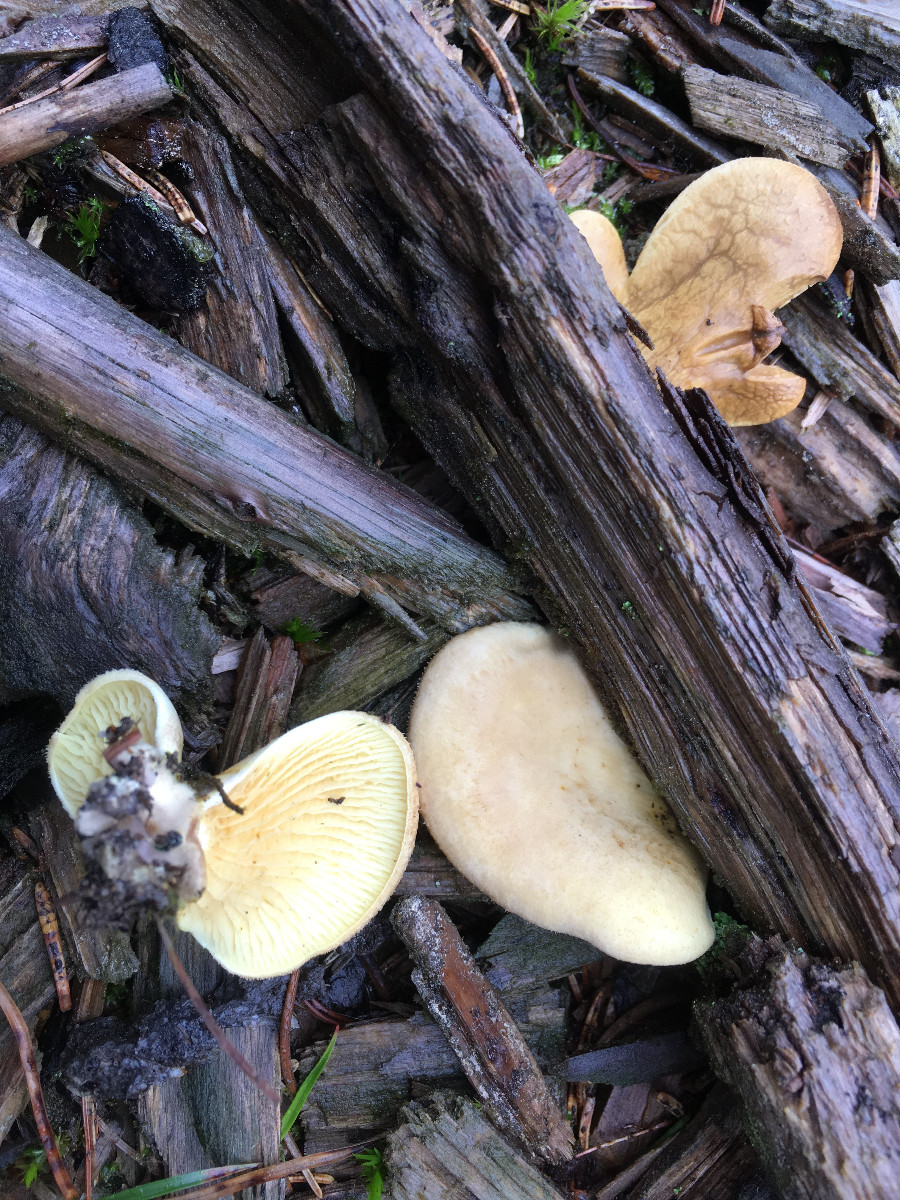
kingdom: Fungi
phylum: Basidiomycota
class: Agaricomycetes
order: Boletales
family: Tapinellaceae
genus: Tapinella
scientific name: Tapinella panuoides
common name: tømmer-viftesvamp
